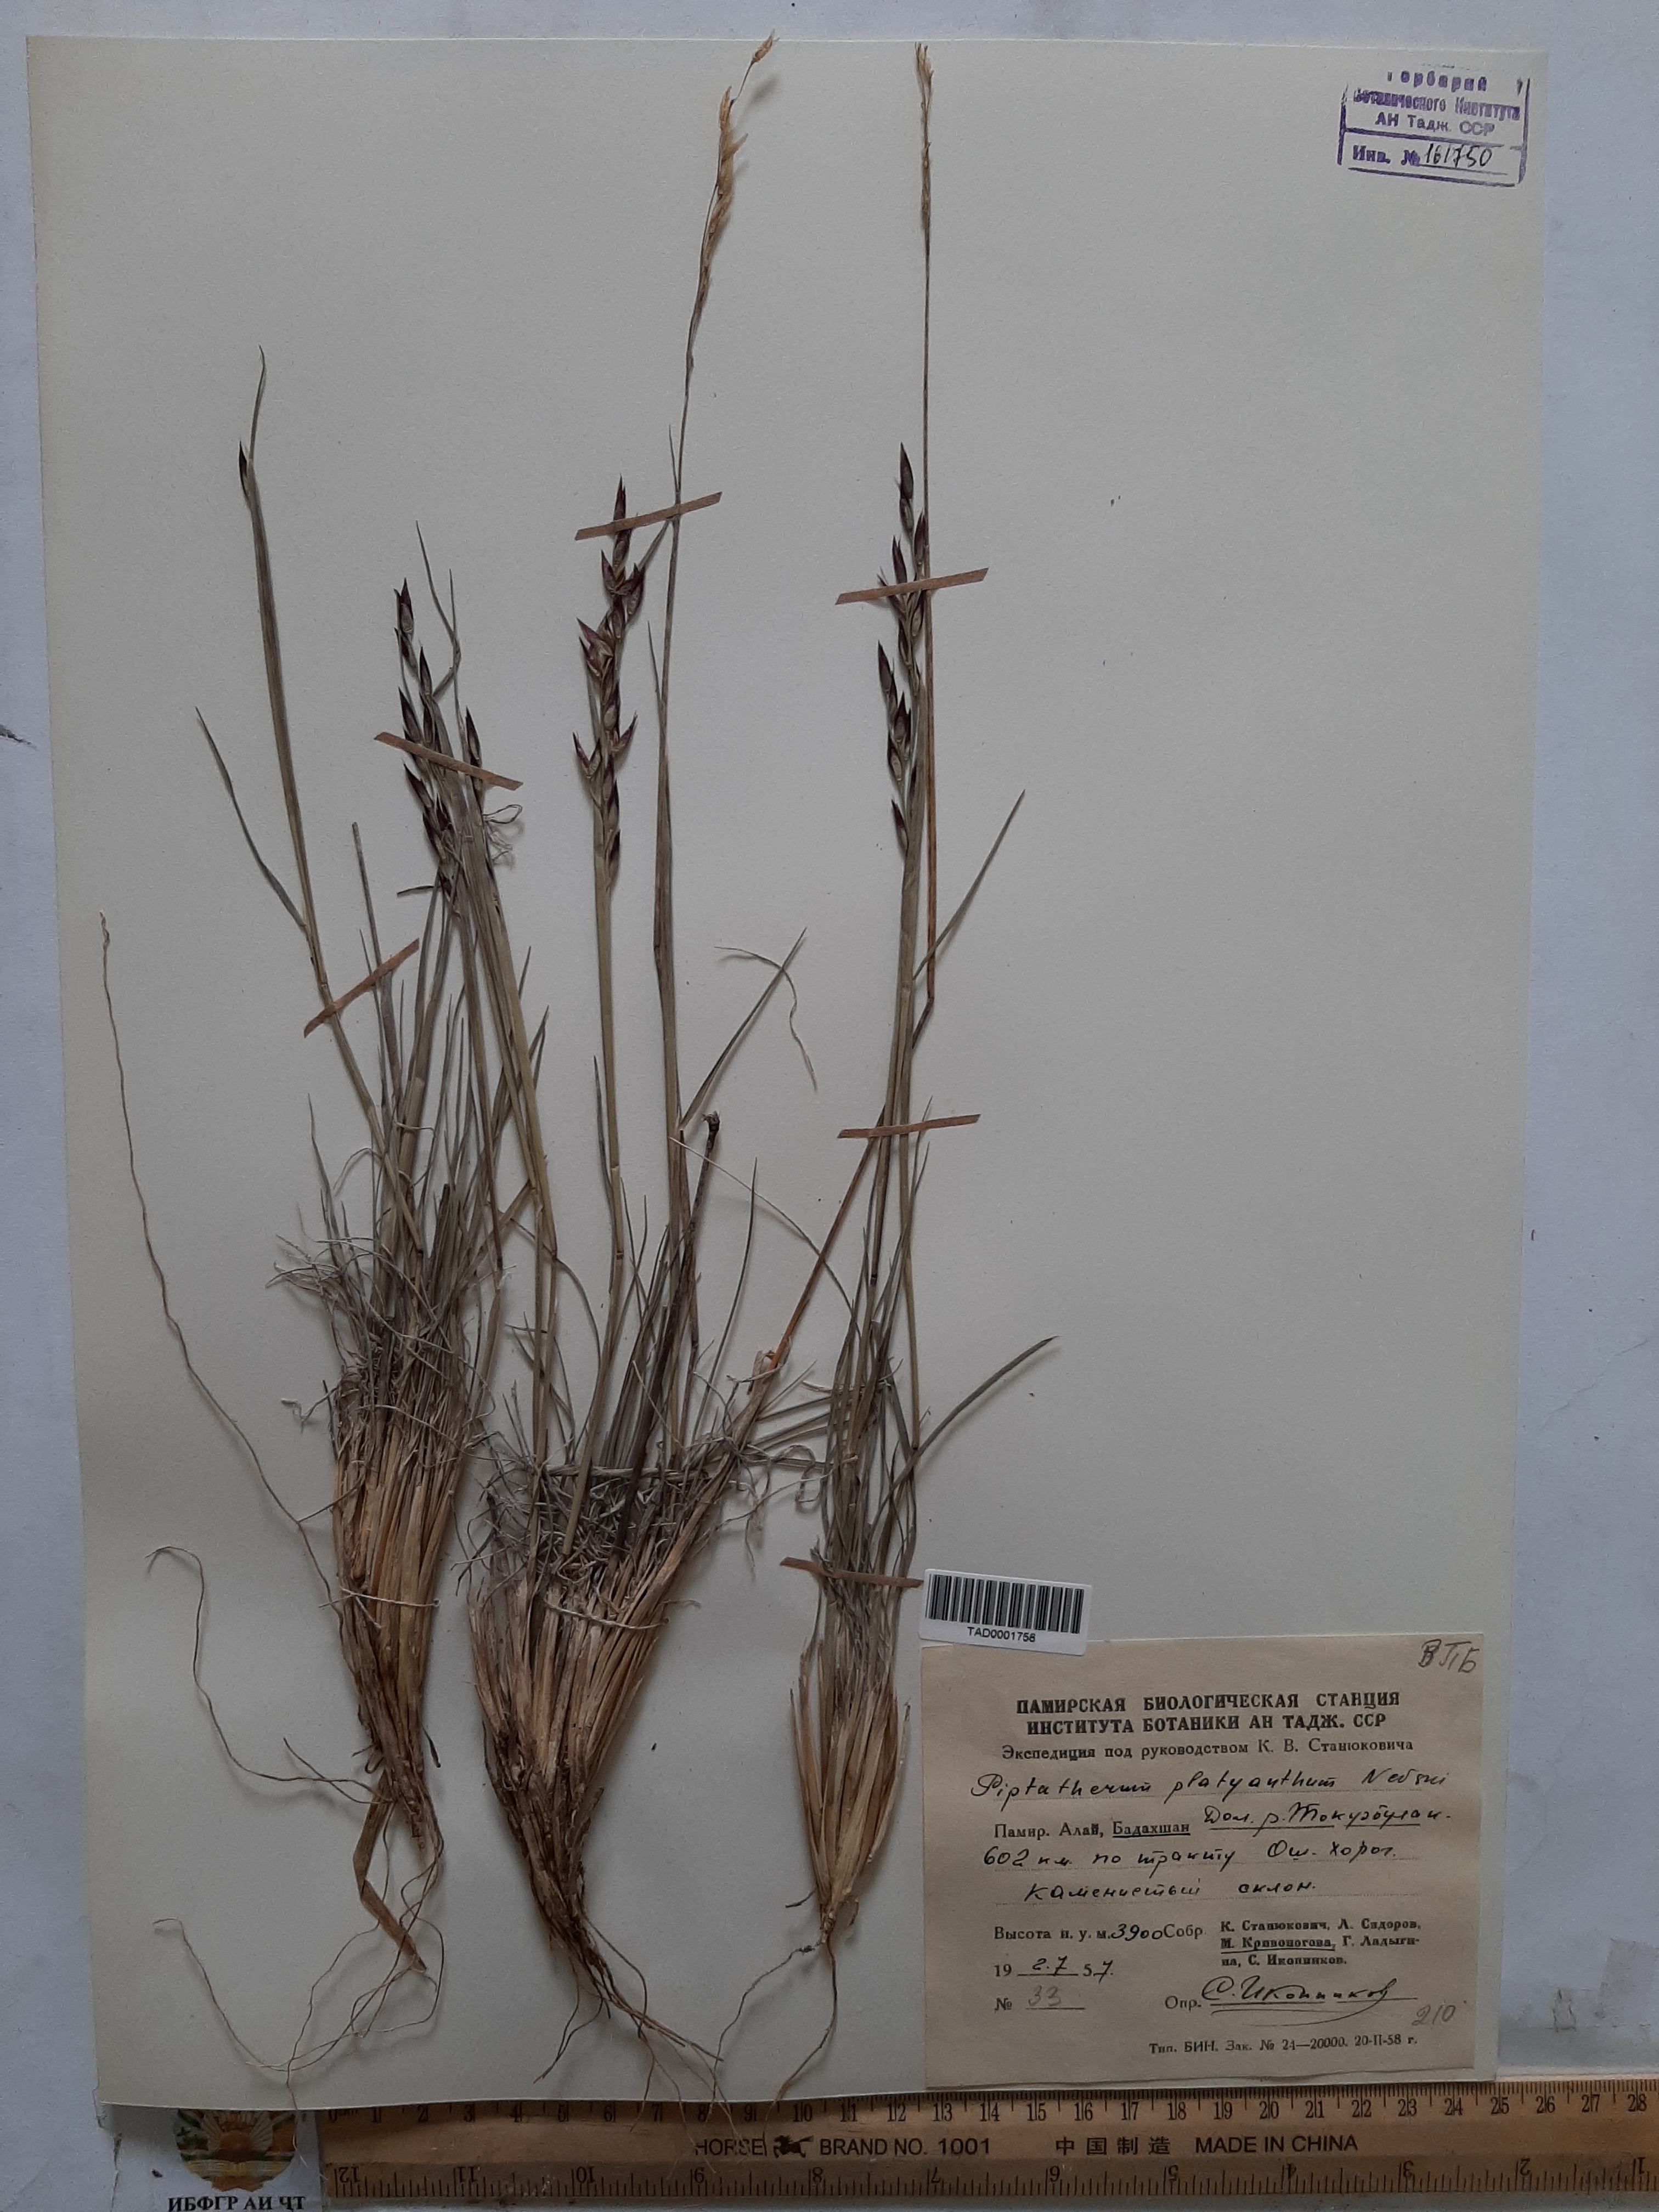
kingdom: Plantae
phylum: Tracheophyta
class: Liliopsida
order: Poales
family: Poaceae
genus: Piptatherum
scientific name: Piptatherum platyanthum
